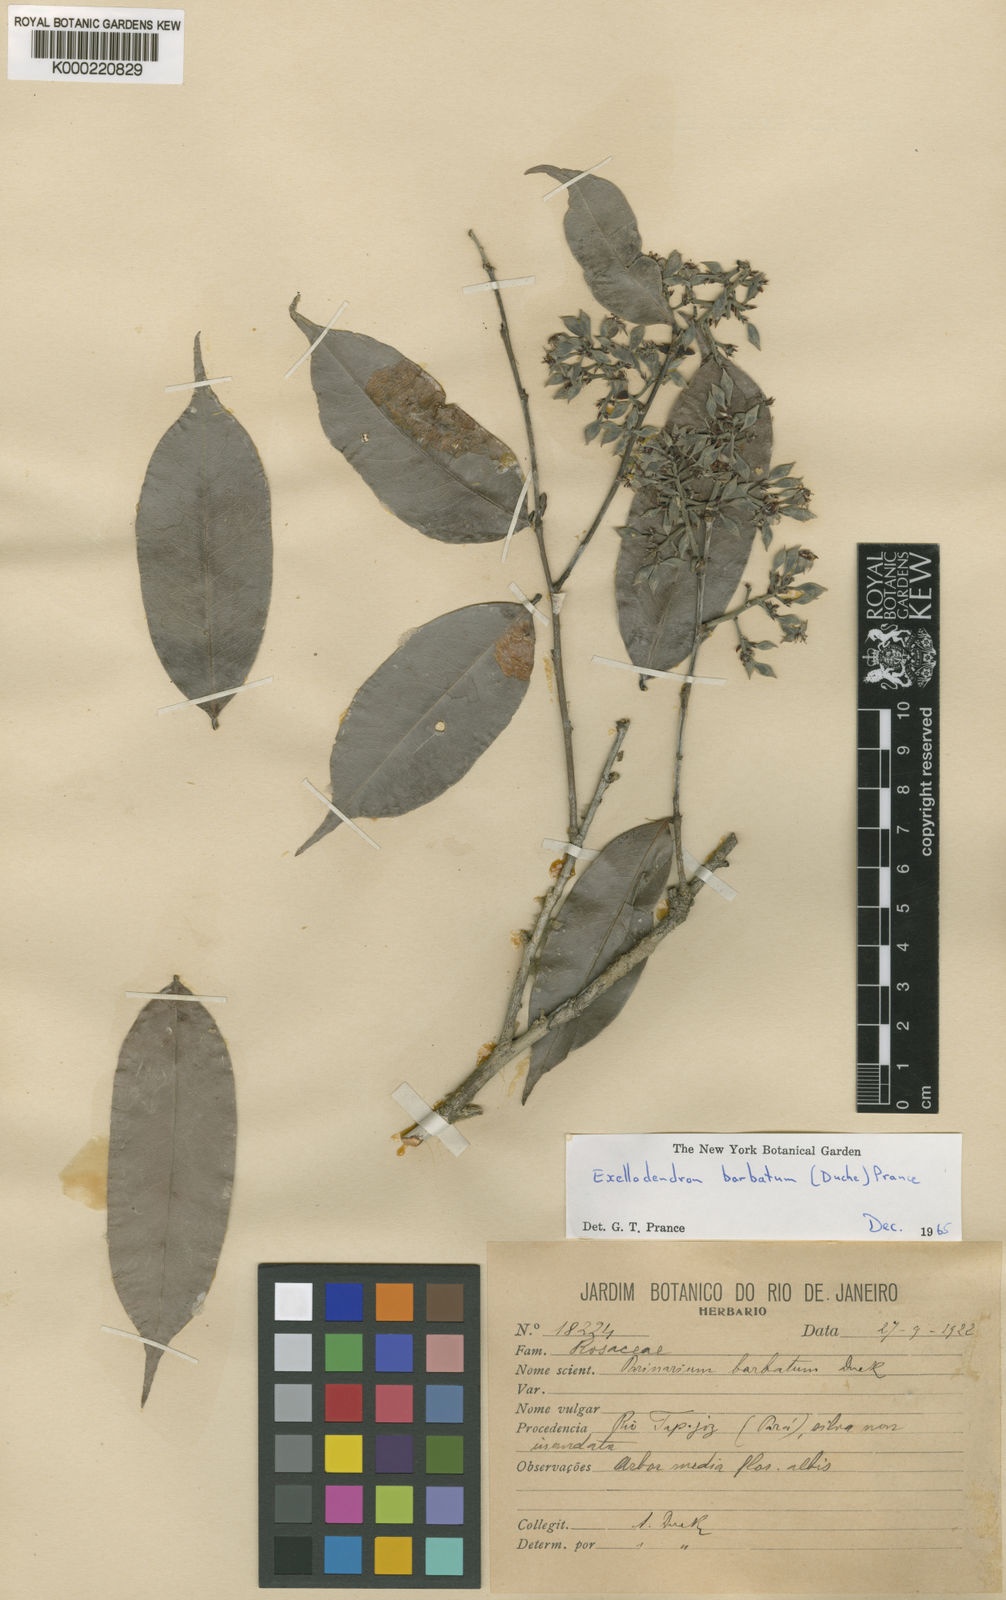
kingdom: Plantae
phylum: Tracheophyta
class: Magnoliopsida
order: Malpighiales
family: Chrysobalanaceae
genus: Exellodendron
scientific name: Exellodendron barbatum
